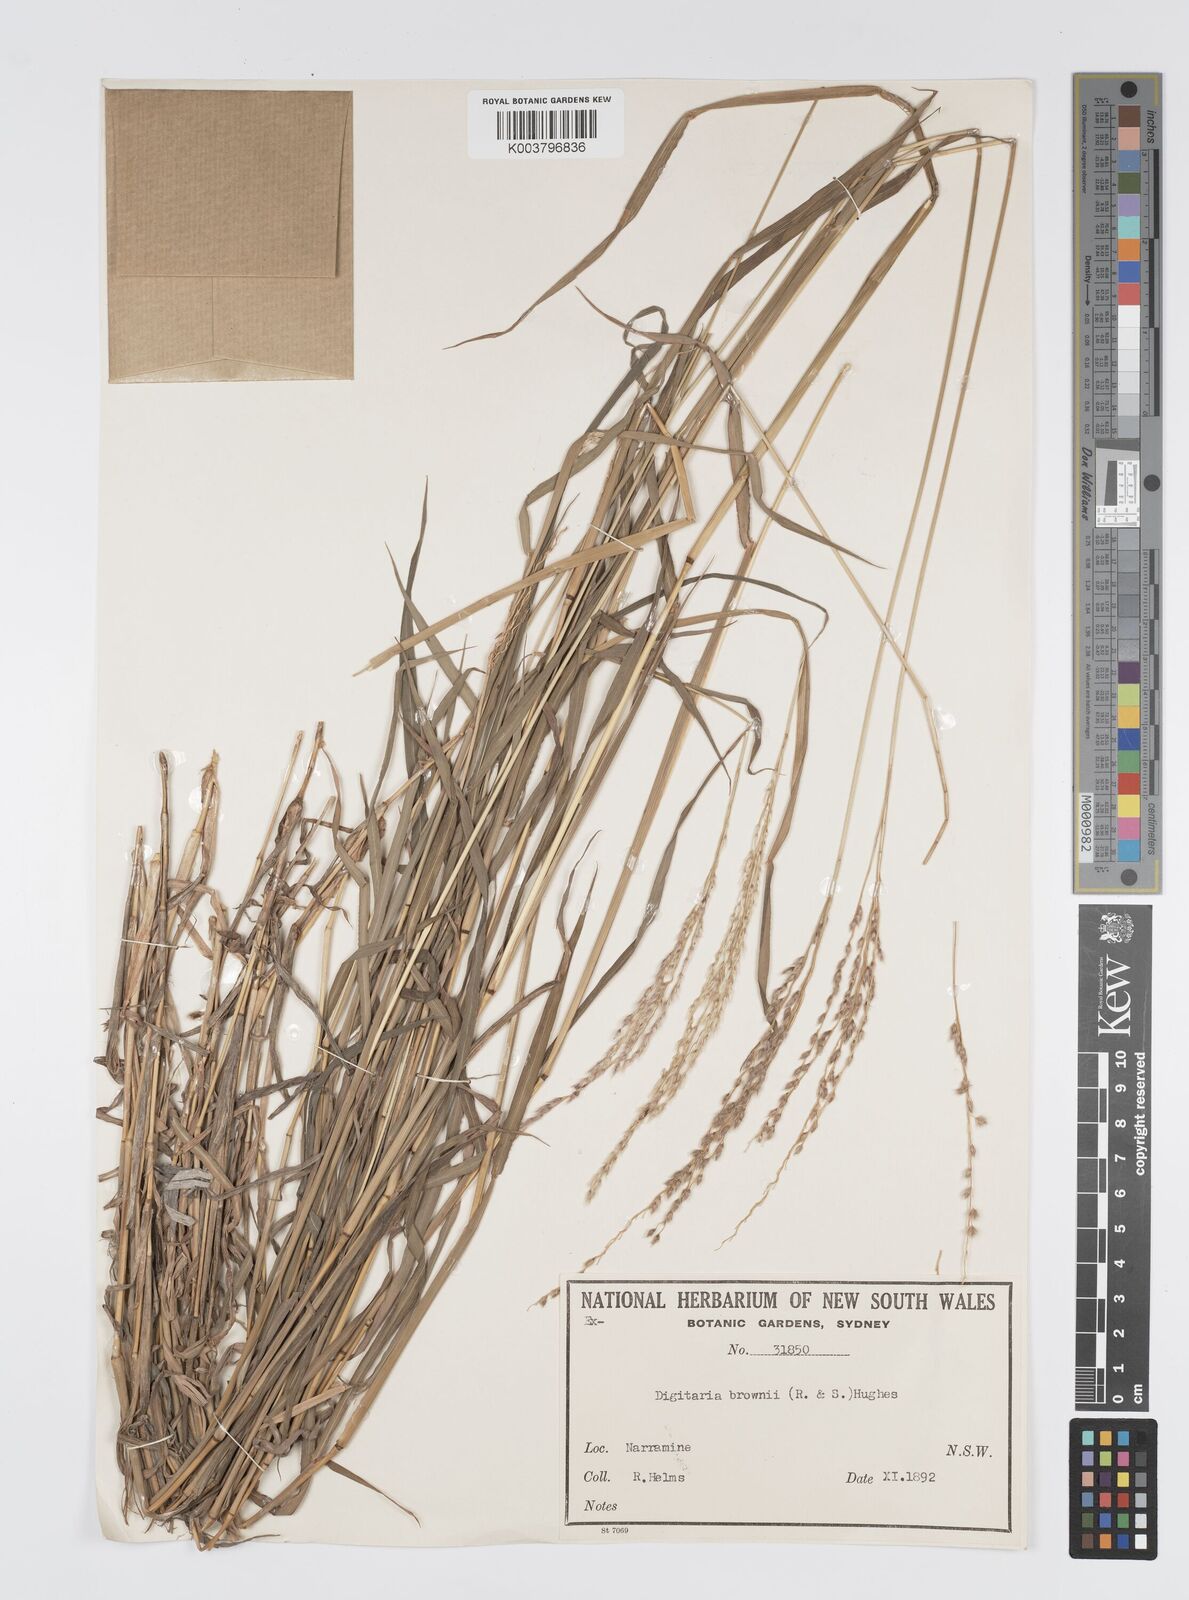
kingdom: Plantae
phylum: Tracheophyta
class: Liliopsida
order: Poales
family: Poaceae
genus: Digitaria
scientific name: Digitaria brownii
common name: Cotton grass
